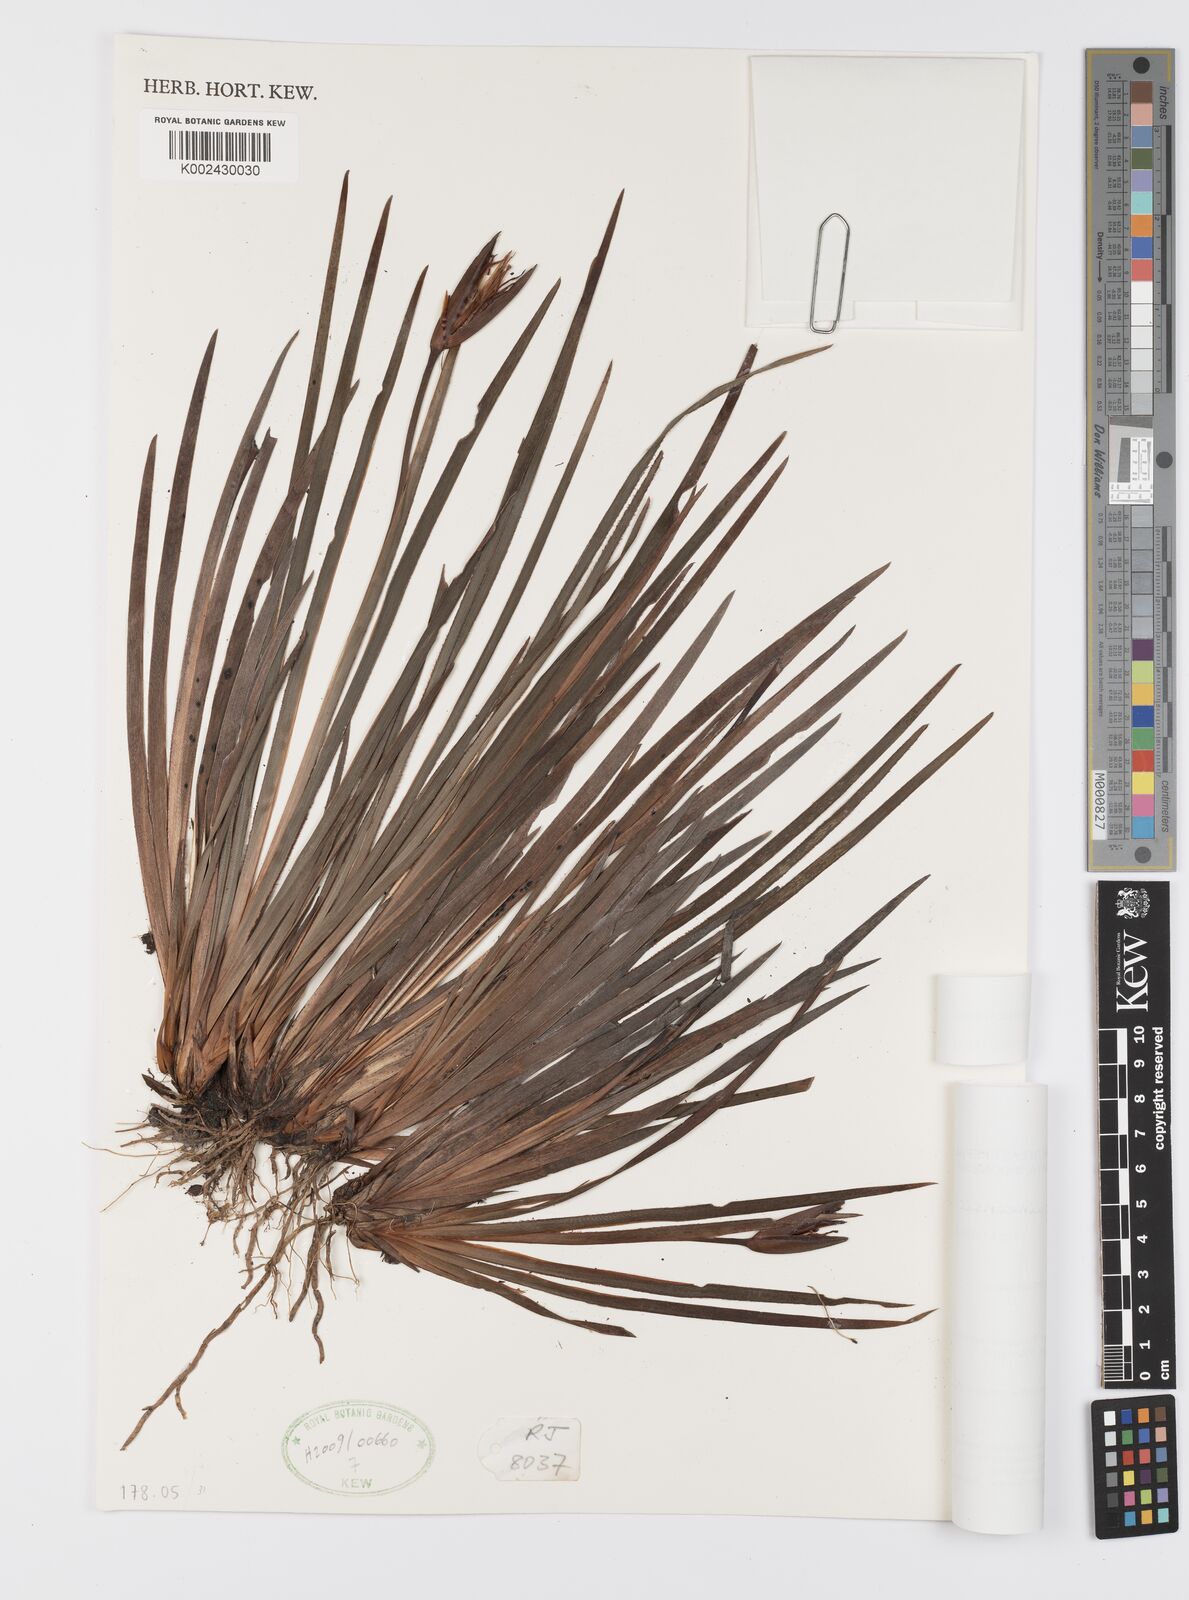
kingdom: Plantae
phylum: Tracheophyta
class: Liliopsida
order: Asparagales
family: Iridaceae
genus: Patersonia
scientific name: Patersonia novoguineensis
